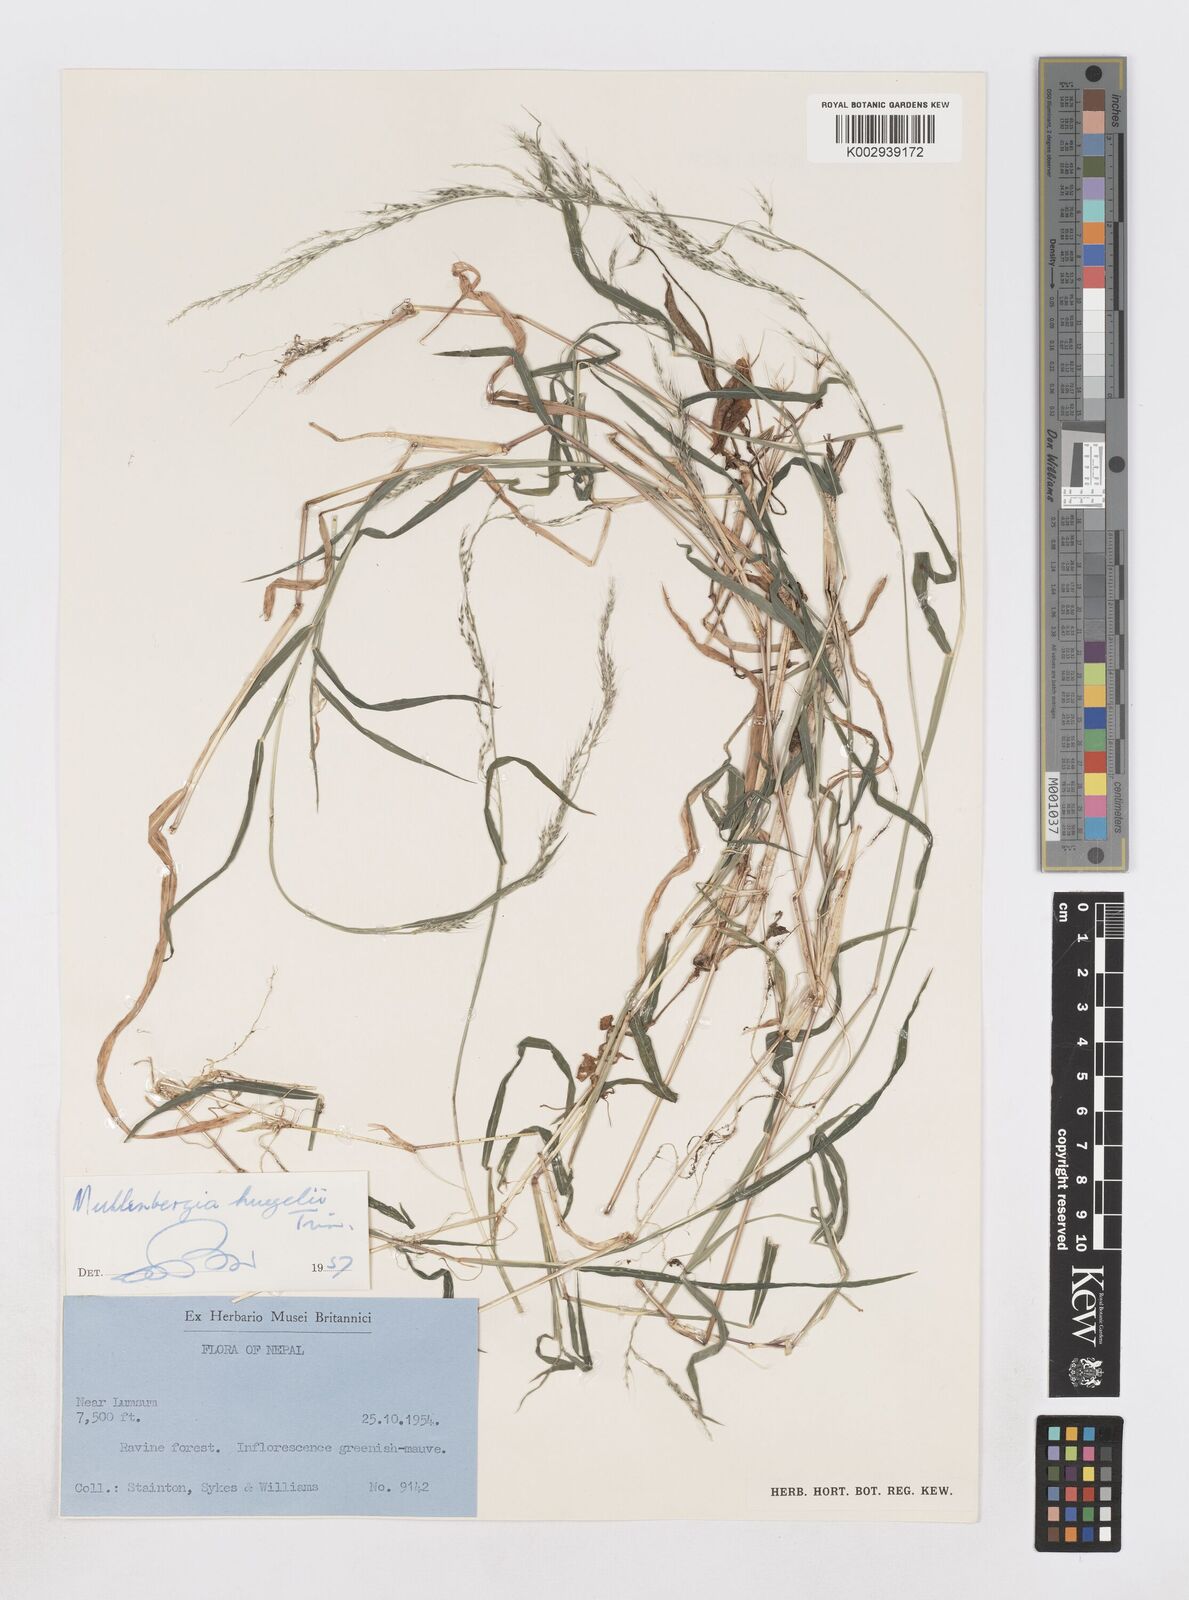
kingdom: Plantae
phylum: Tracheophyta
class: Liliopsida
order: Poales
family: Poaceae
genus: Muhlenbergia
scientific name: Muhlenbergia huegelii
